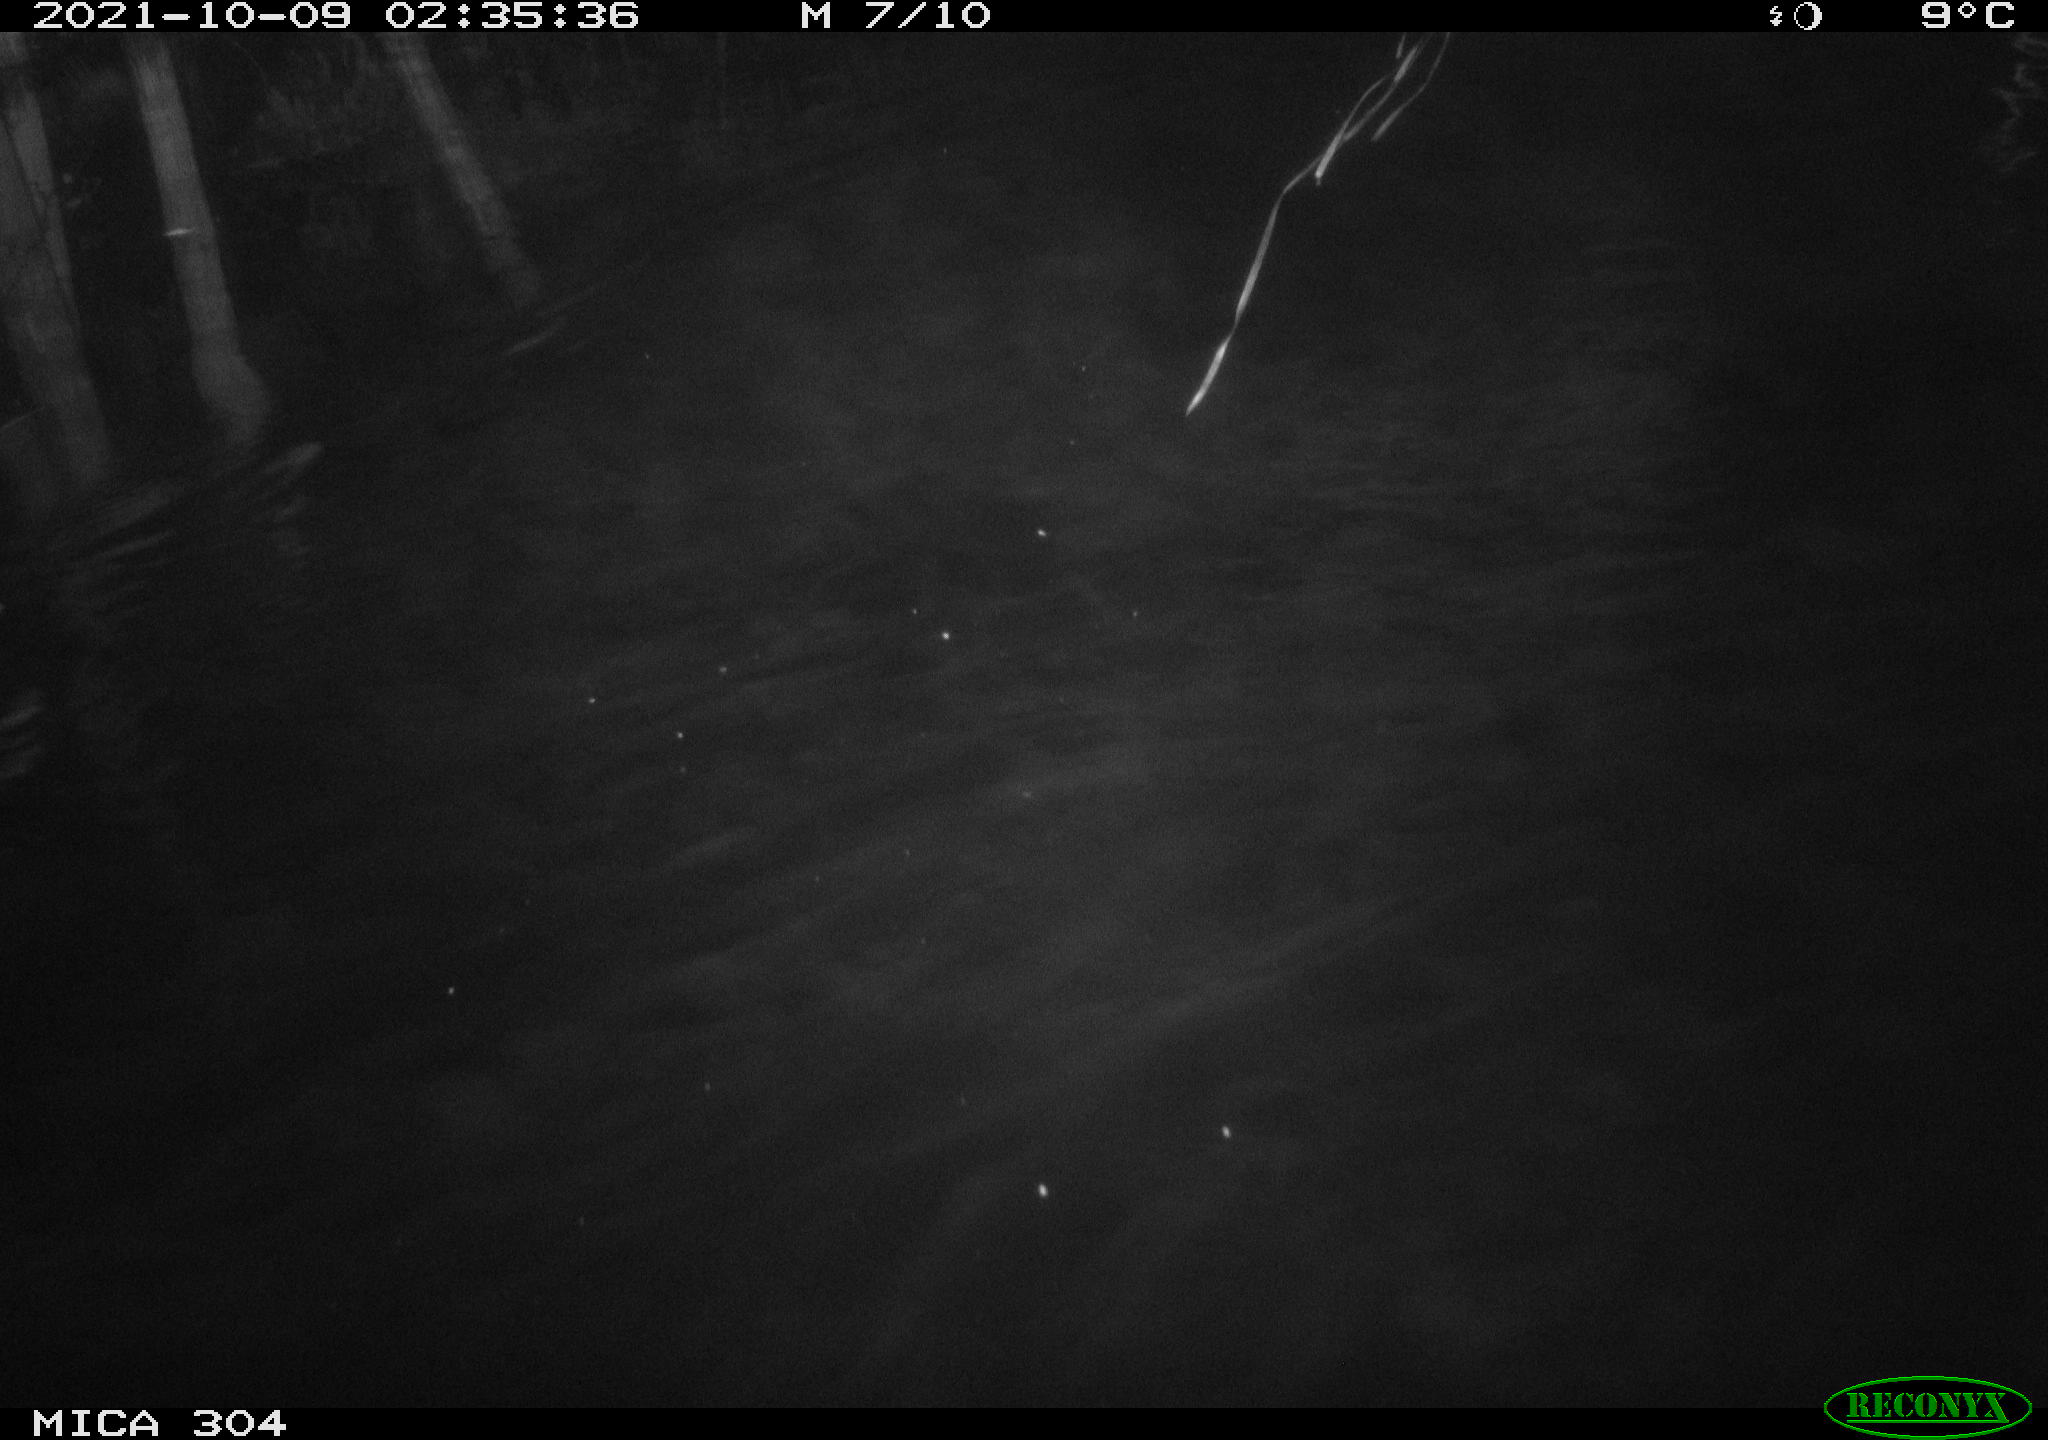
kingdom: Animalia
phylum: Chordata
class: Mammalia
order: Rodentia
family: Cricetidae
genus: Ondatra
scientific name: Ondatra zibethicus
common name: Muskrat
